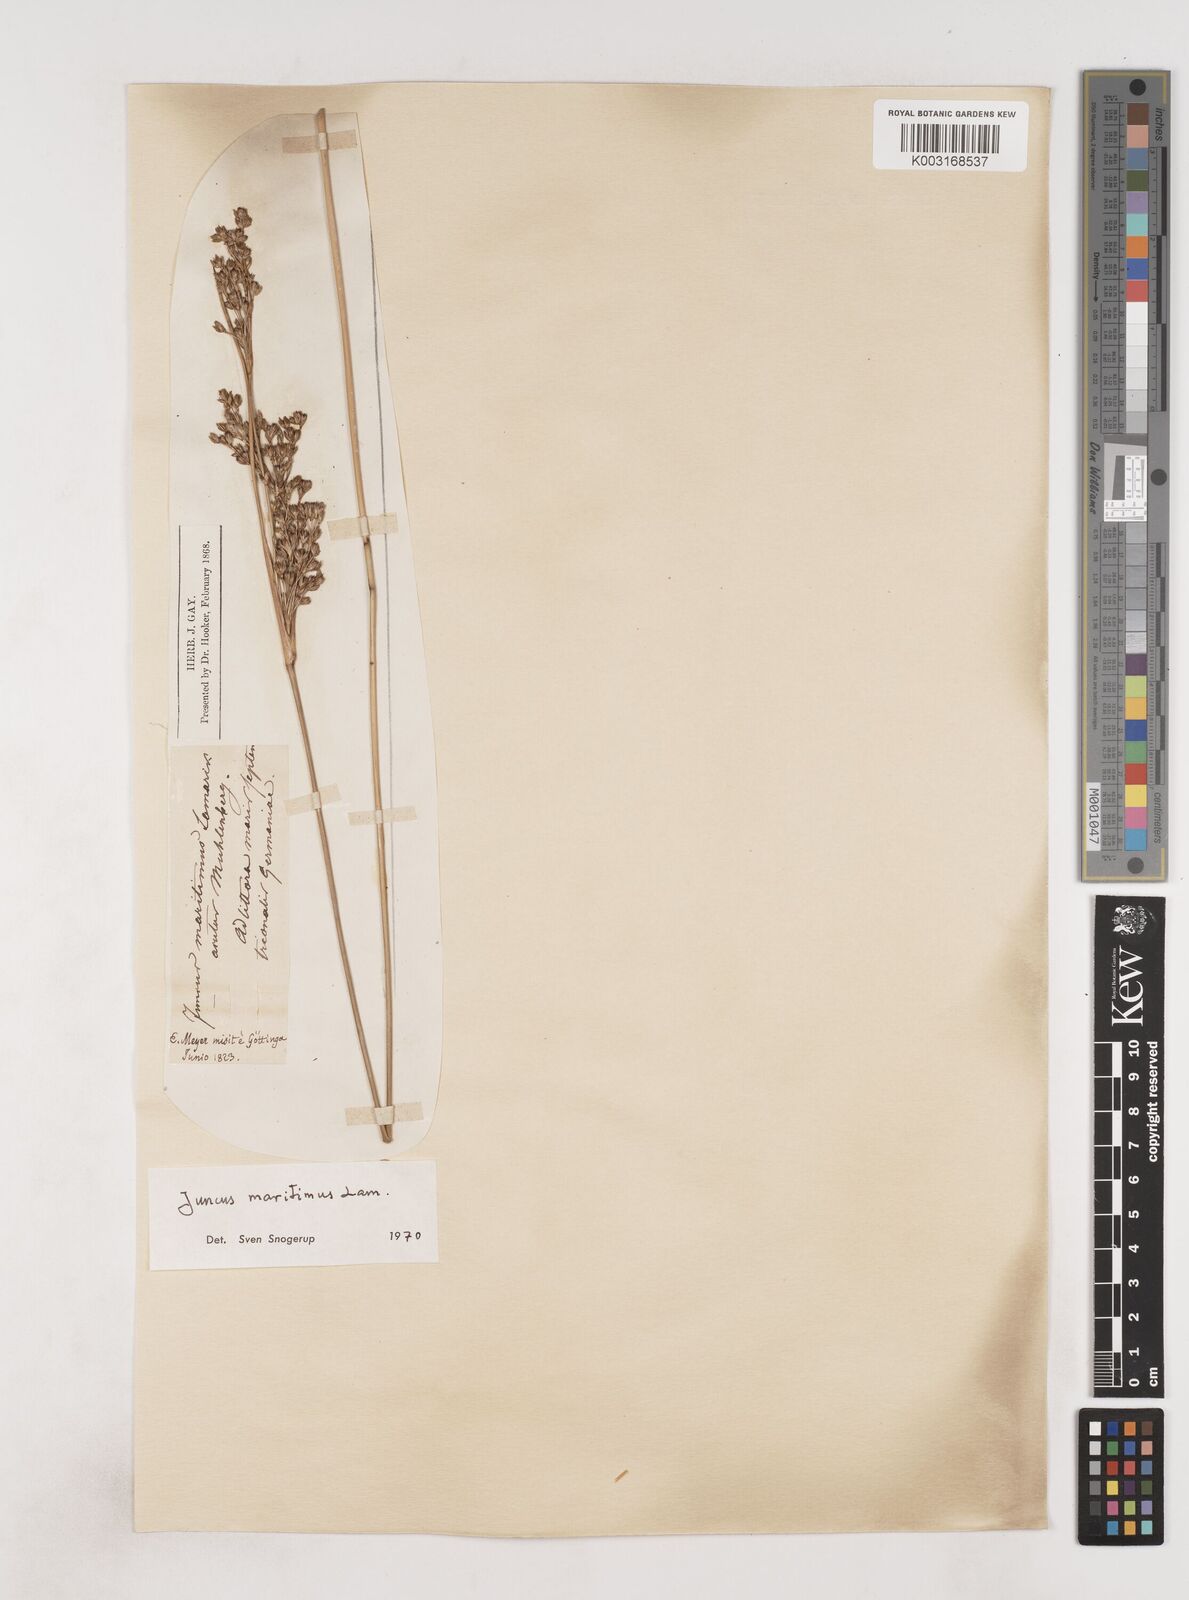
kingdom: Plantae
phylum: Tracheophyta
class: Liliopsida
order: Poales
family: Juncaceae
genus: Juncus
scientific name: Juncus maritimus
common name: Sea rush
